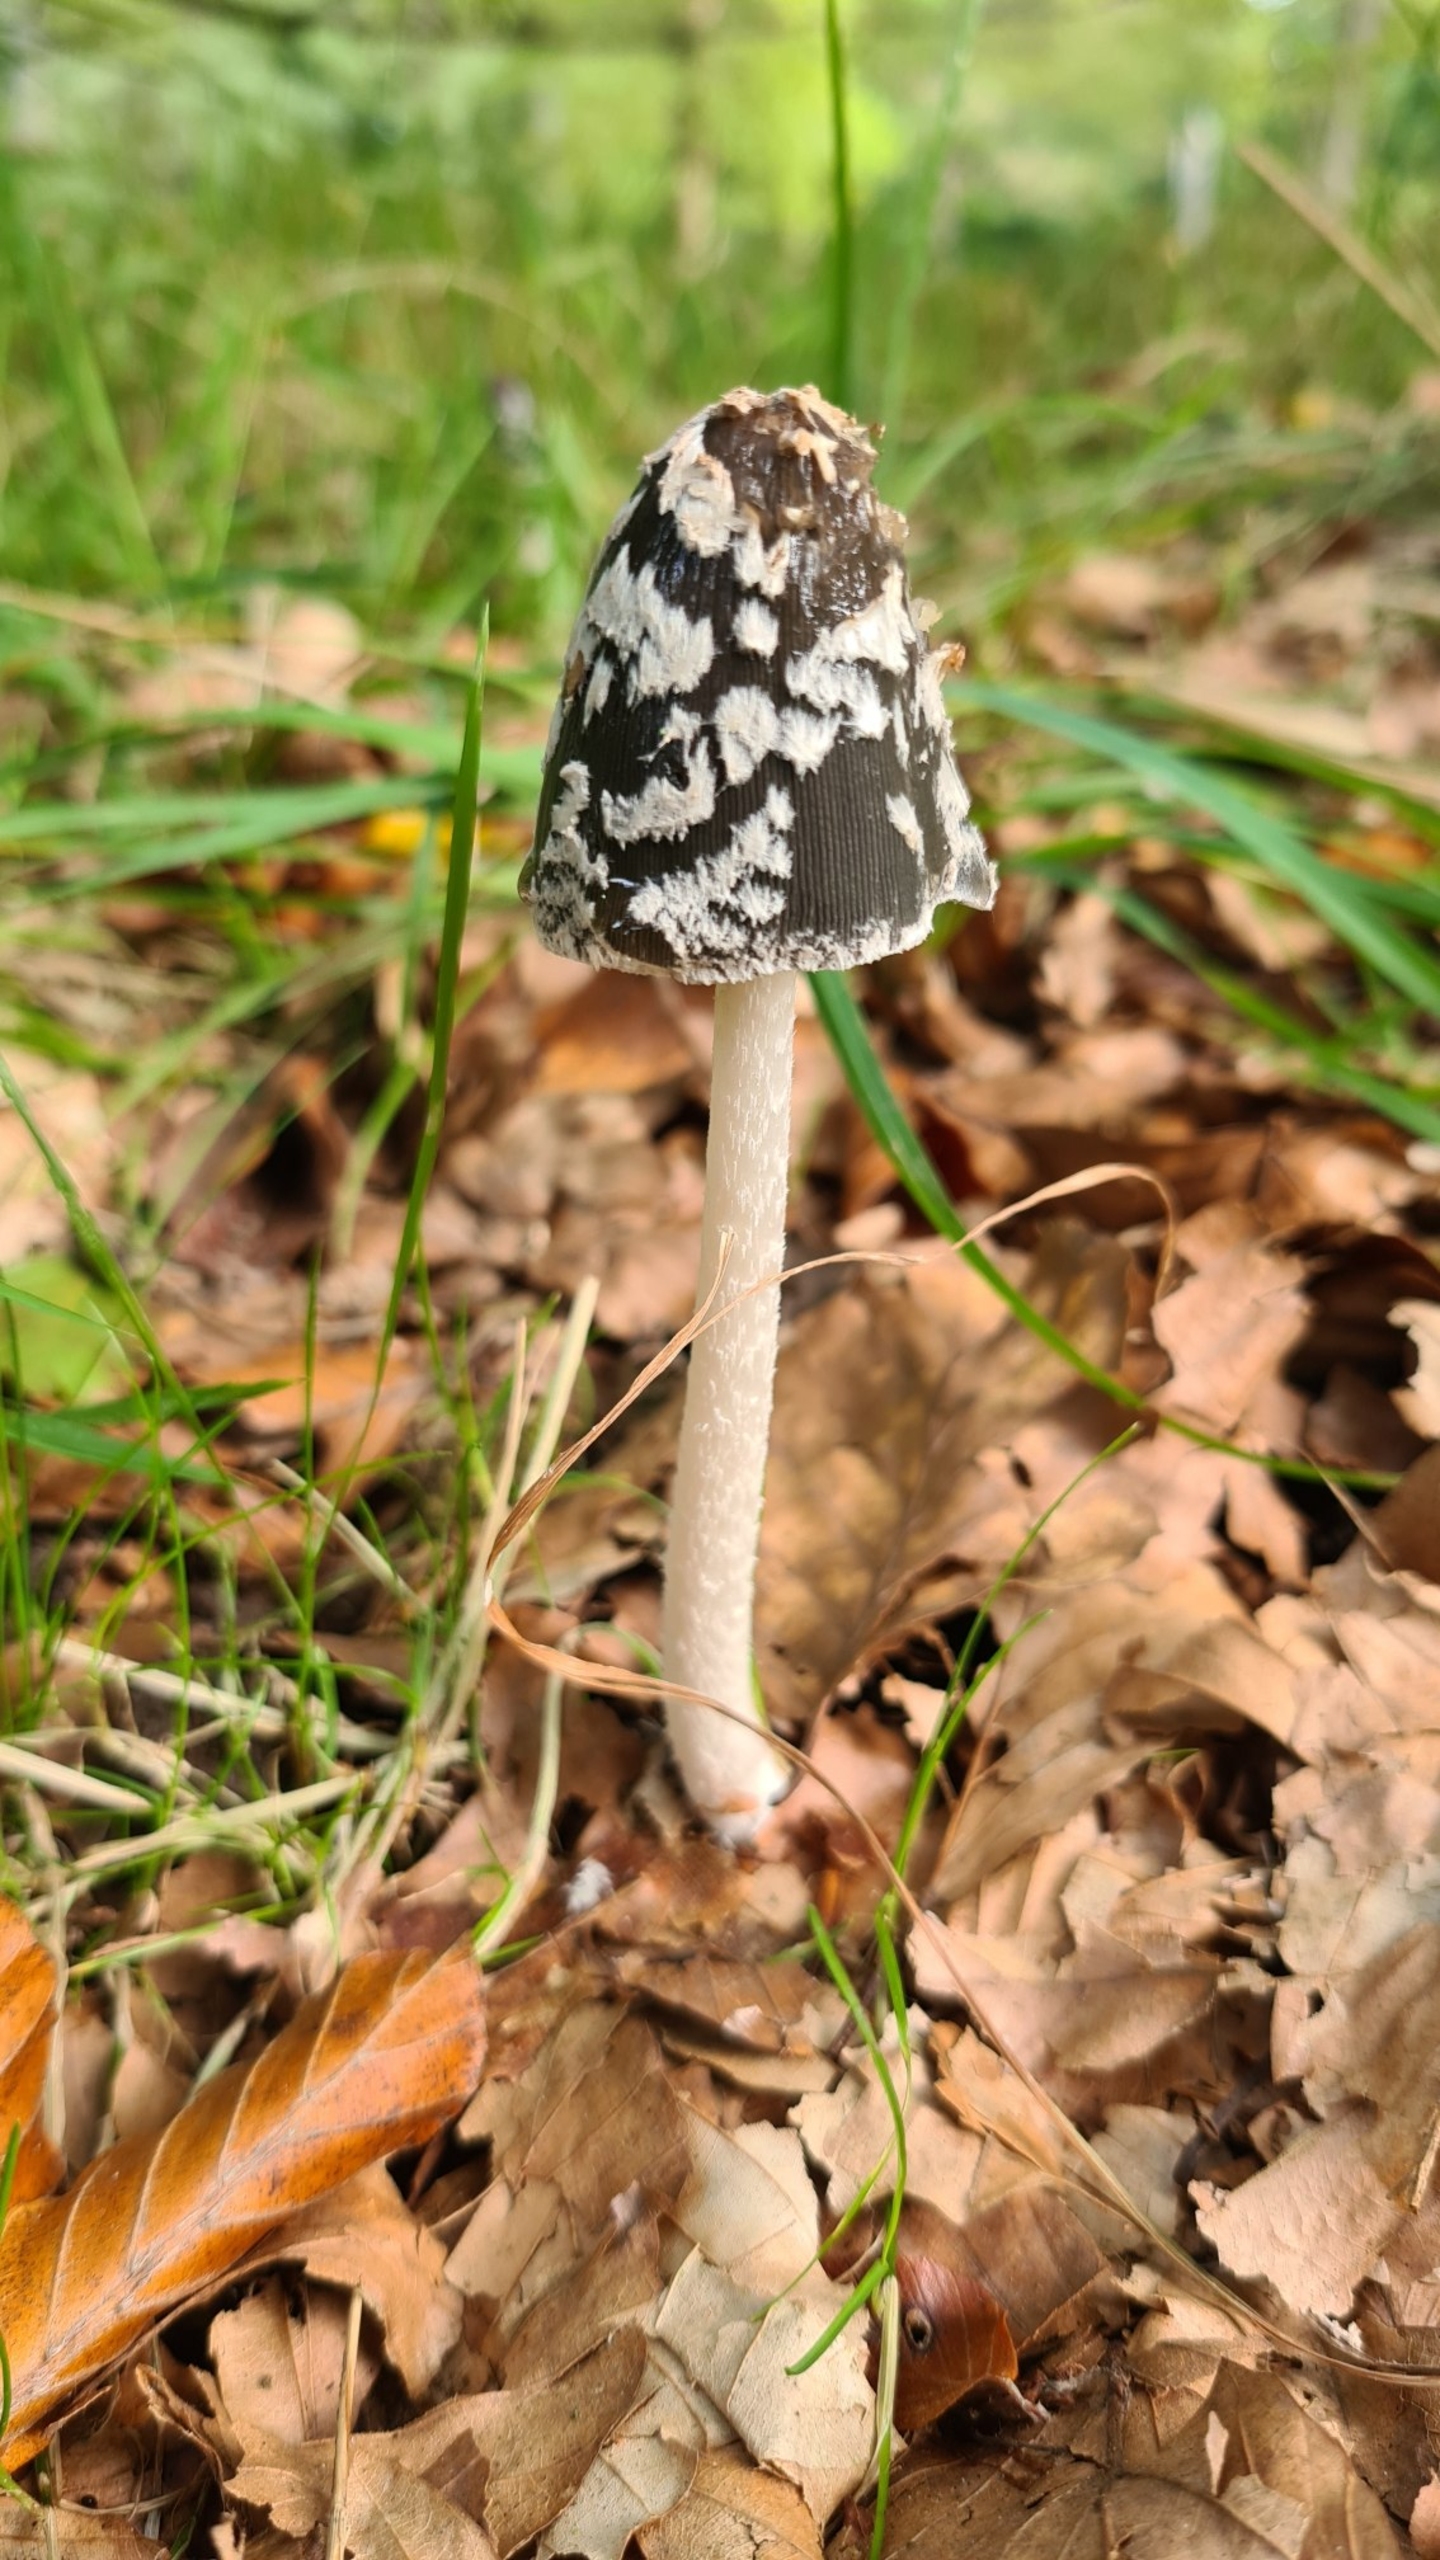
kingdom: Fungi
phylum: Basidiomycota
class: Agaricomycetes
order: Agaricales
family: Psathyrellaceae
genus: Coprinopsis
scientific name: Coprinopsis picacea
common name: Skade-blækhat
